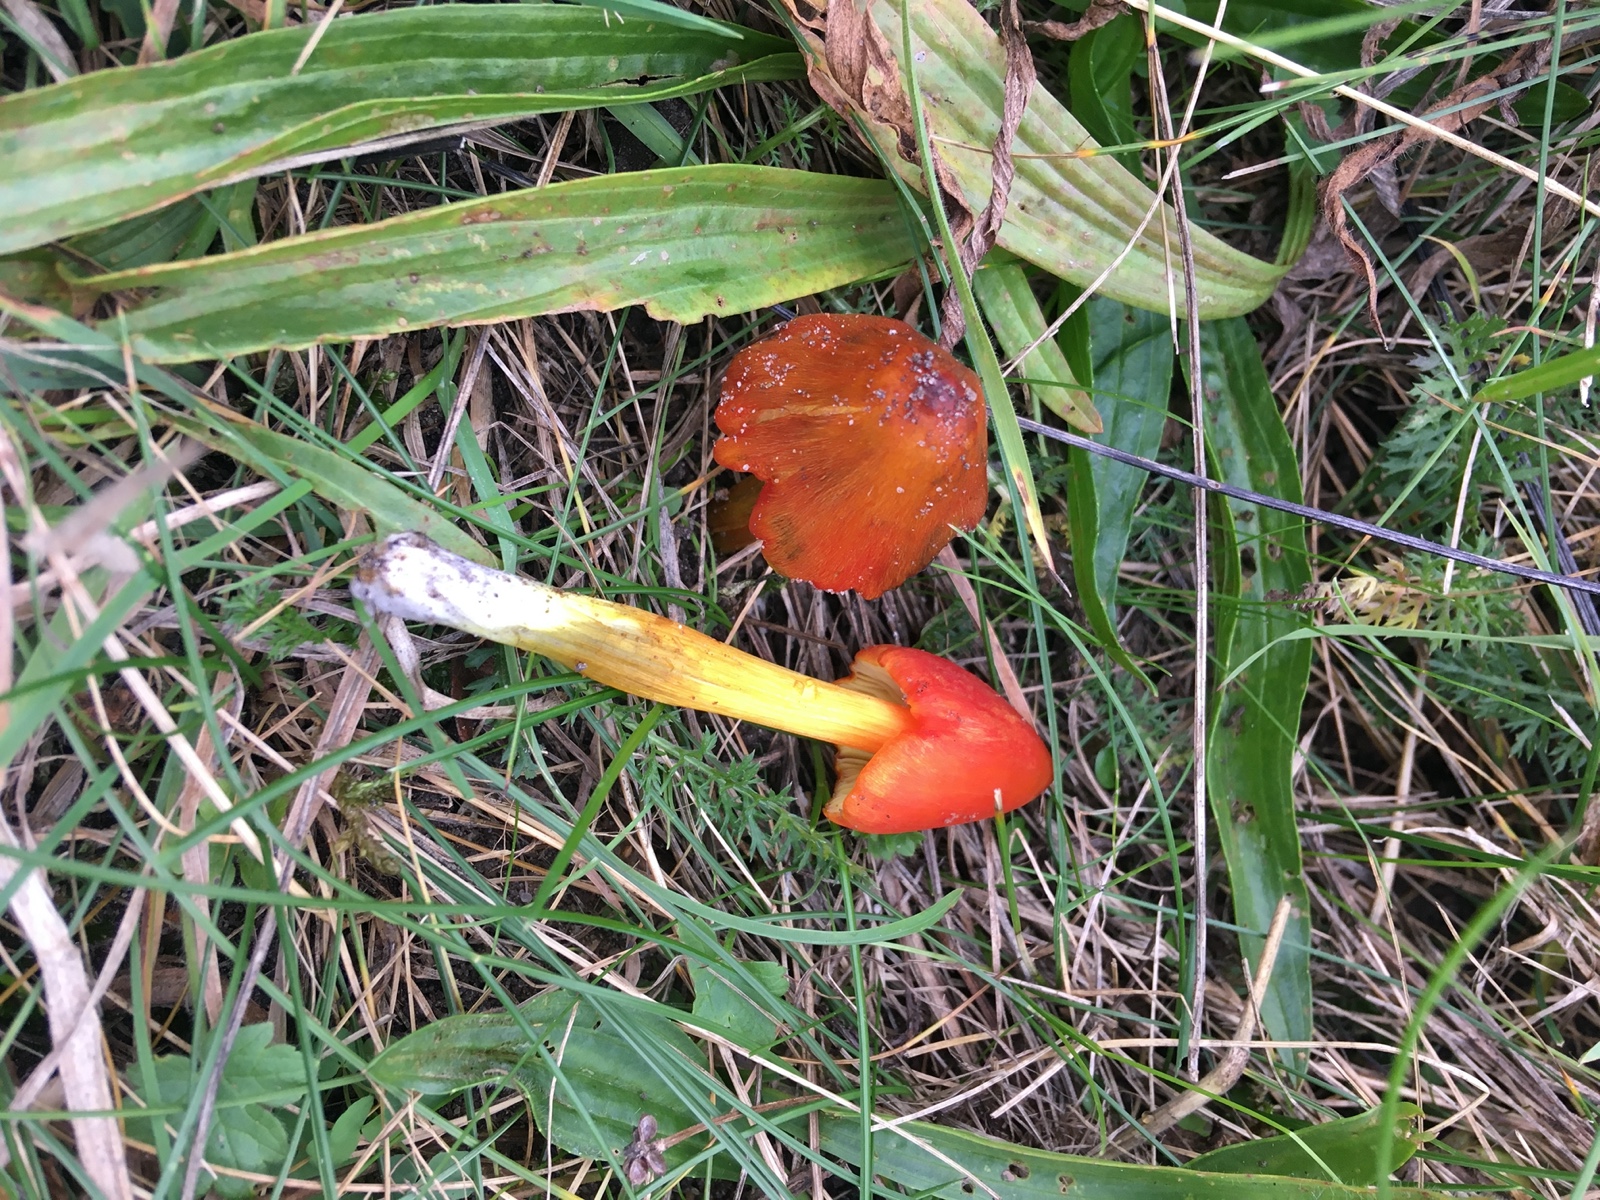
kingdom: Fungi
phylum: Basidiomycota
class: Agaricomycetes
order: Agaricales
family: Hygrophoraceae
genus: Hygrocybe
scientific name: Hygrocybe conica
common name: kegle-vokshat
